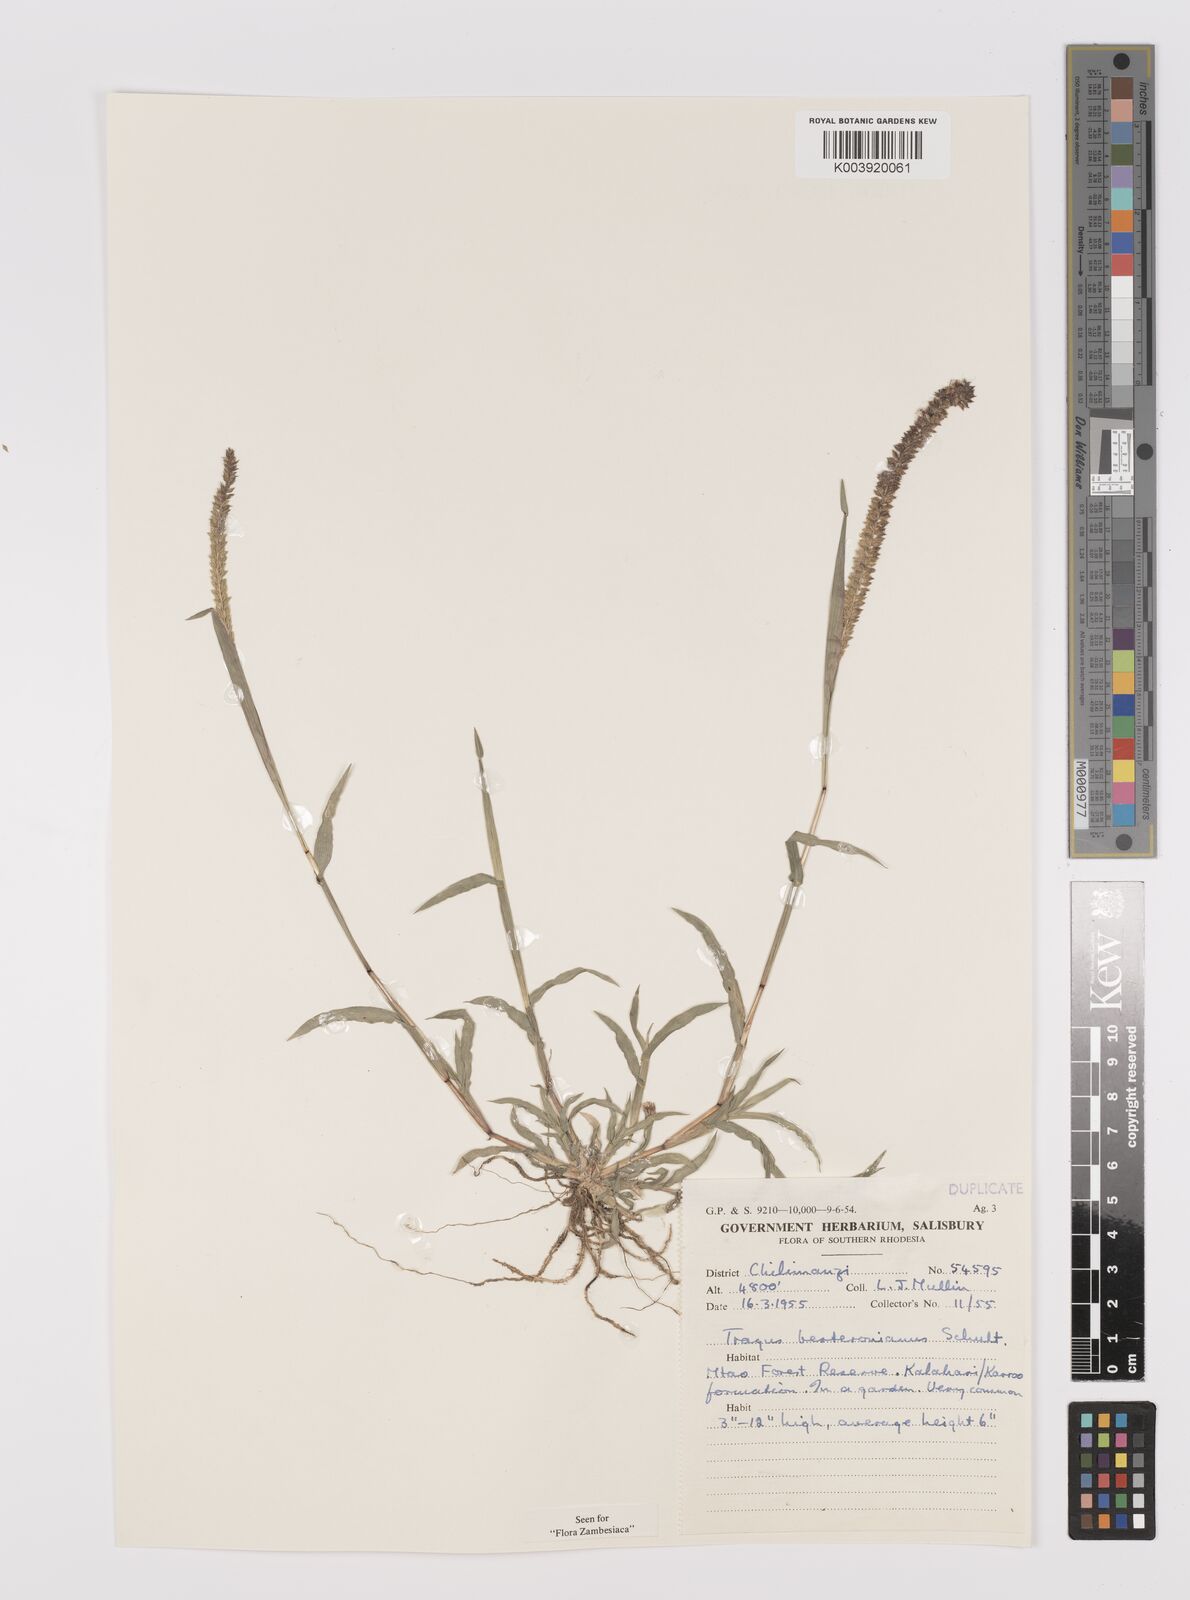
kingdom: Plantae
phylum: Tracheophyta
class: Liliopsida
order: Poales
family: Poaceae
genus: Tragus
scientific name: Tragus berteronianus
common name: African bur-grass
